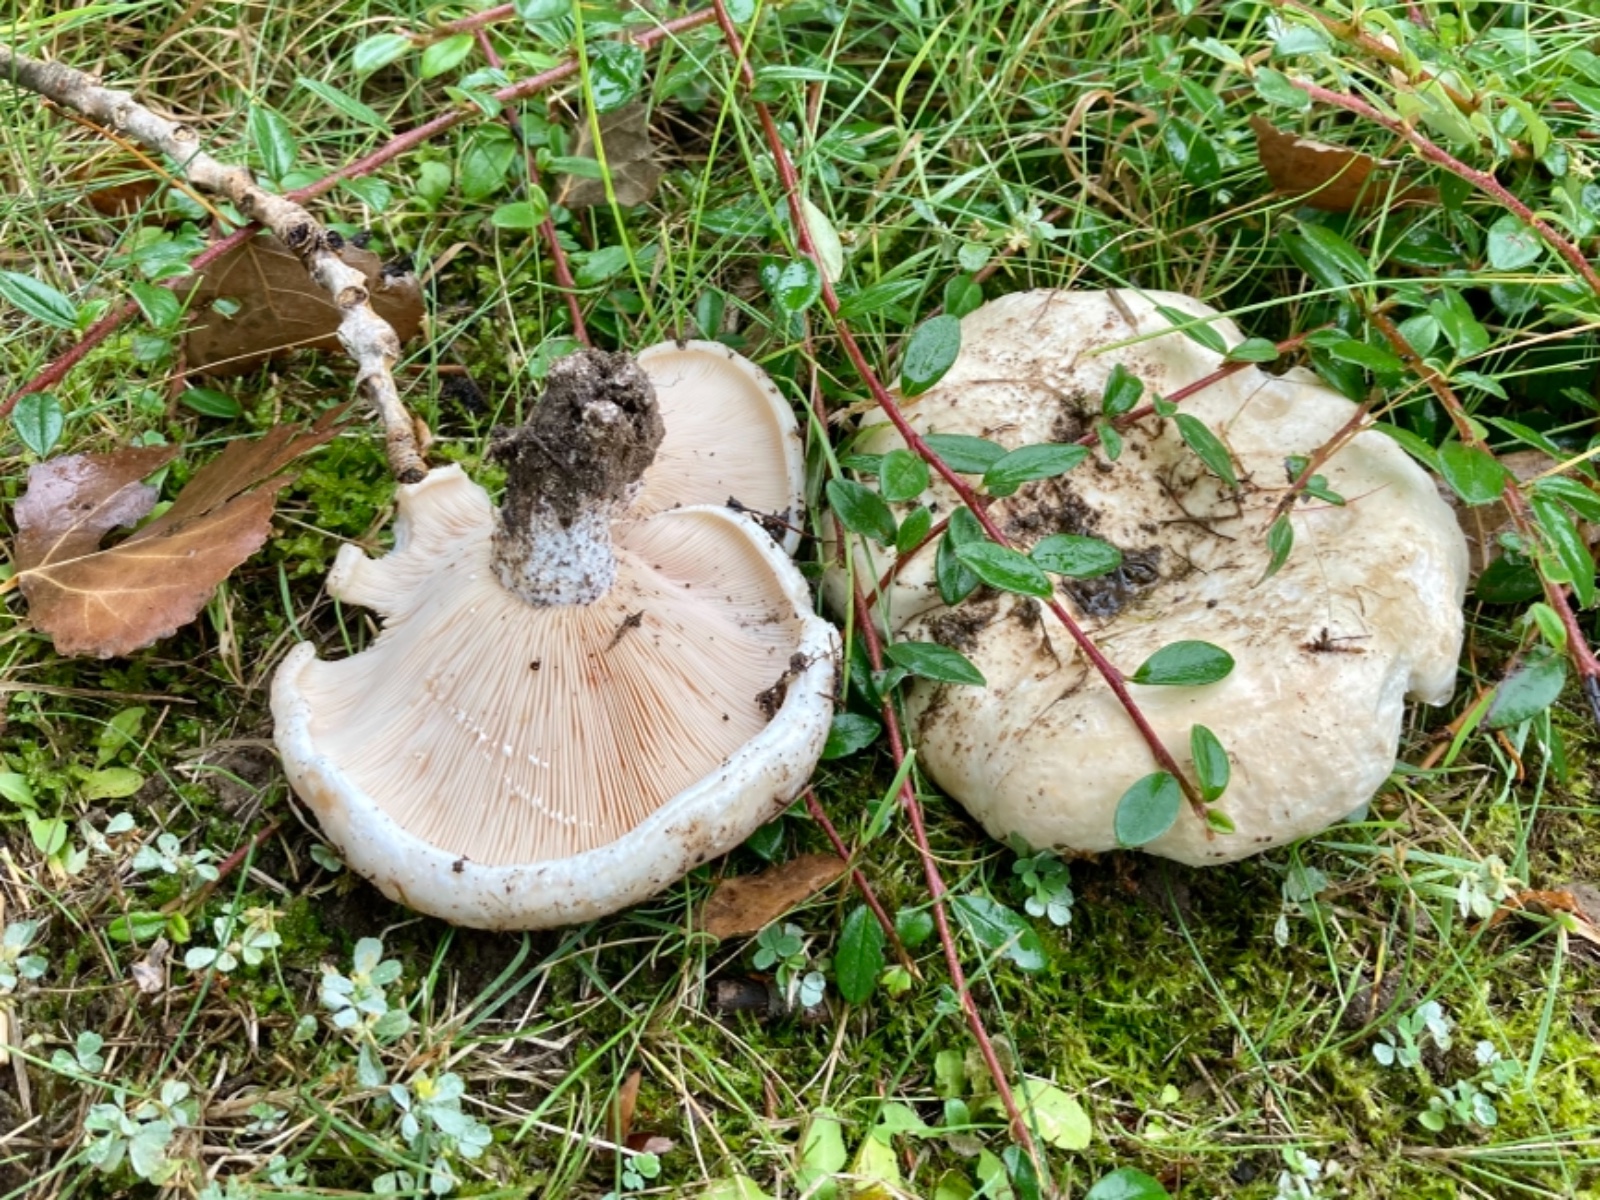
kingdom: Fungi
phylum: Basidiomycota
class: Agaricomycetes
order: Russulales
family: Russulaceae
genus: Lactarius
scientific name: Lactarius controversus
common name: rosabladet mælkehat
